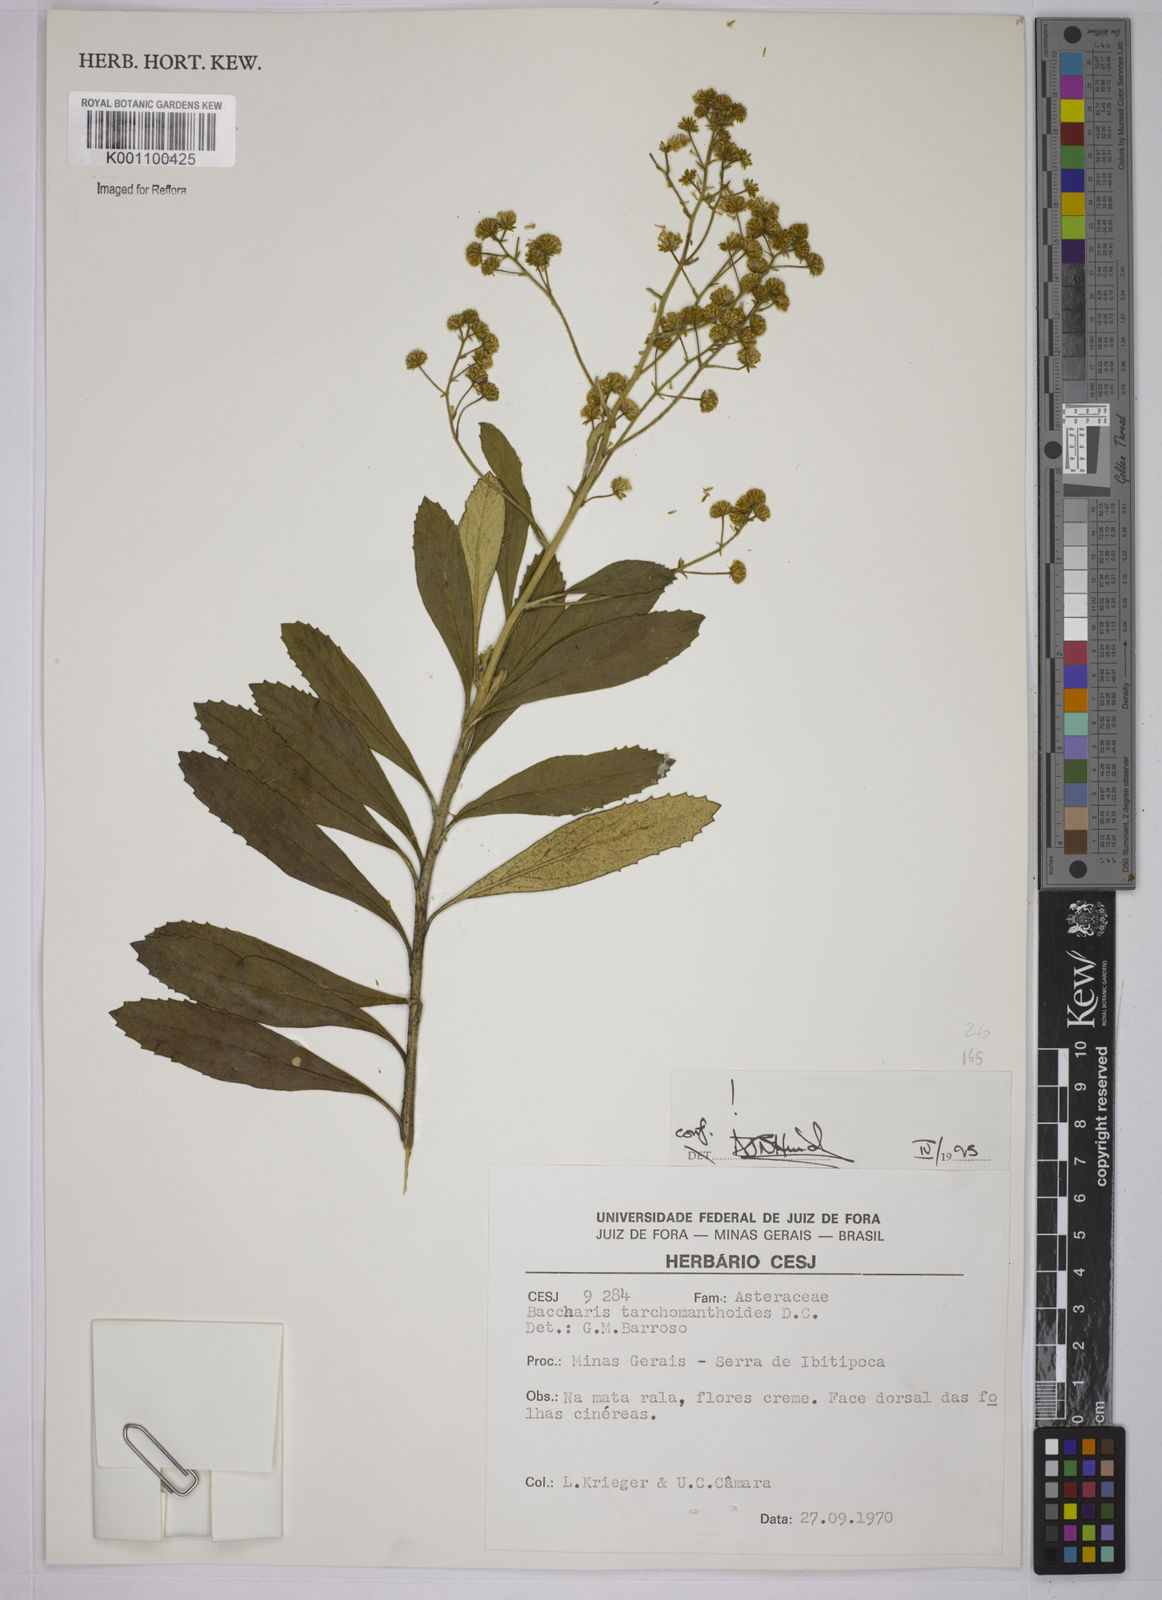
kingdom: Plantae
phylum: Tracheophyta
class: Magnoliopsida
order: Asterales
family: Asteraceae
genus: Baccharis
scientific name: Baccharis
